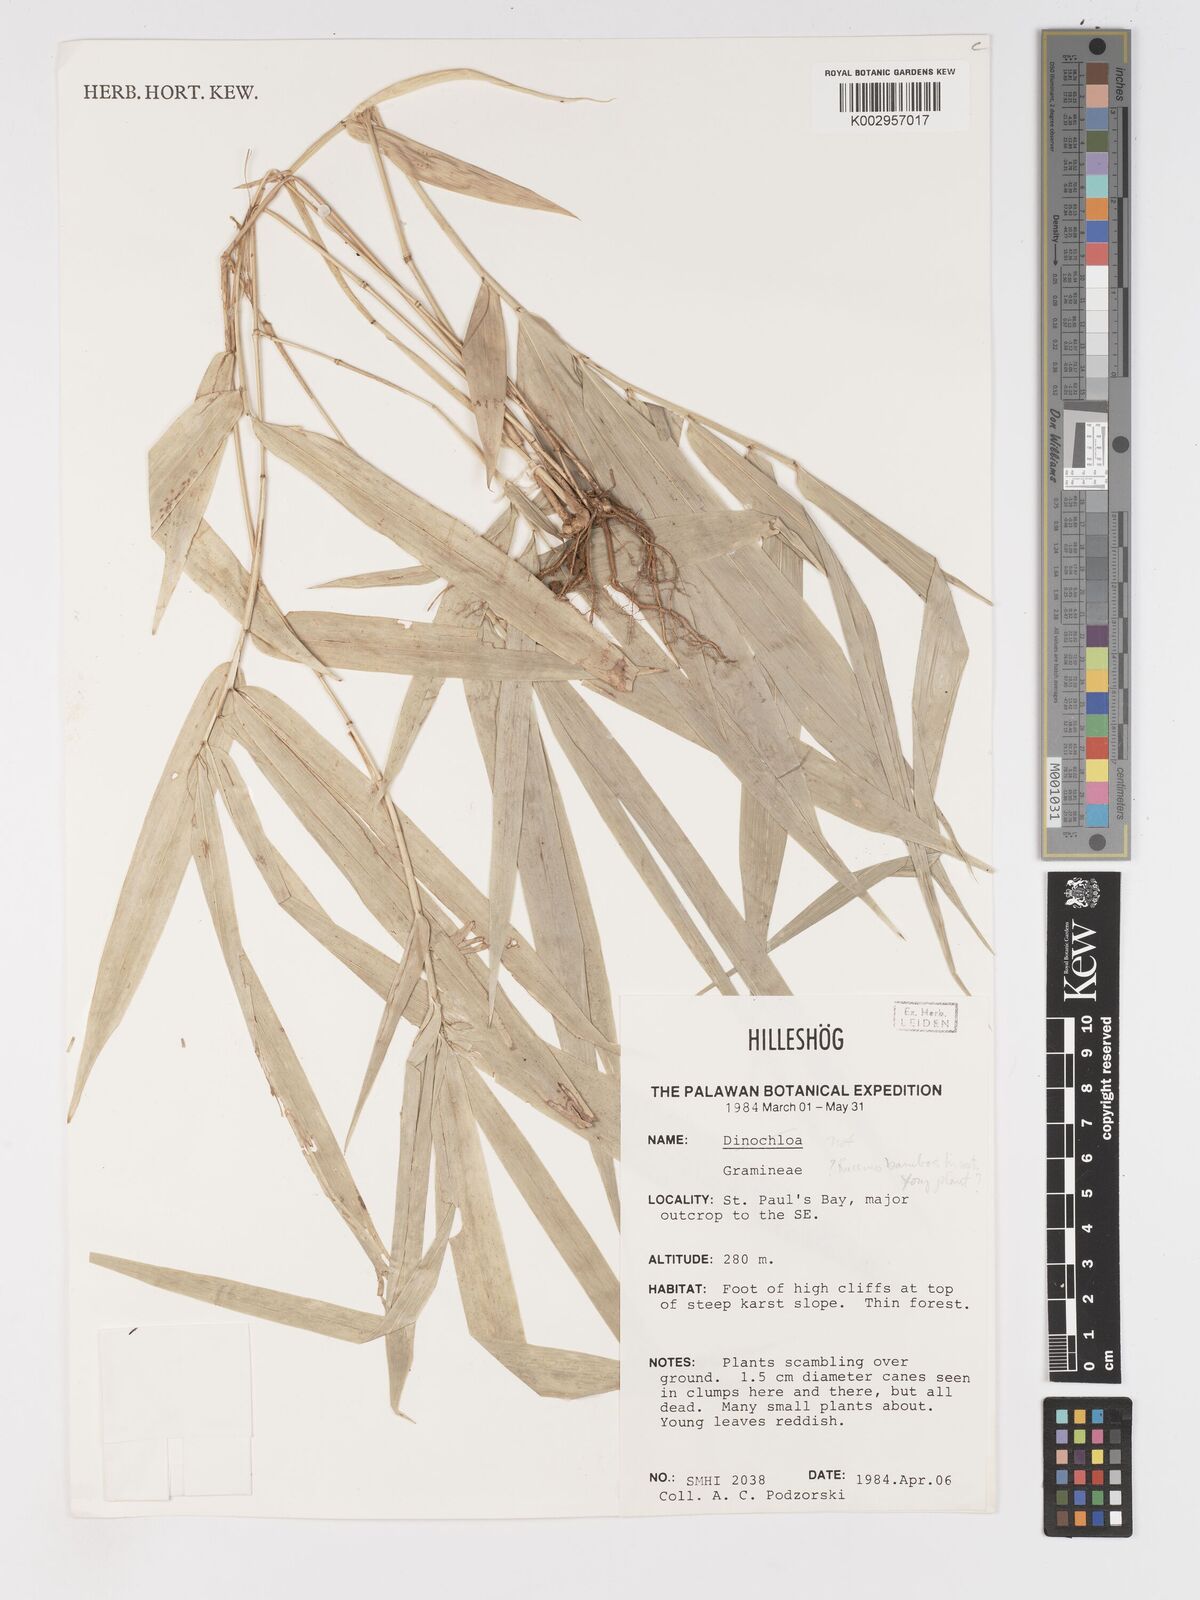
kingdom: Plantae
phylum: Tracheophyta
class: Liliopsida
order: Poales
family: Poaceae
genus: Racemobambos
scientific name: Racemobambos
